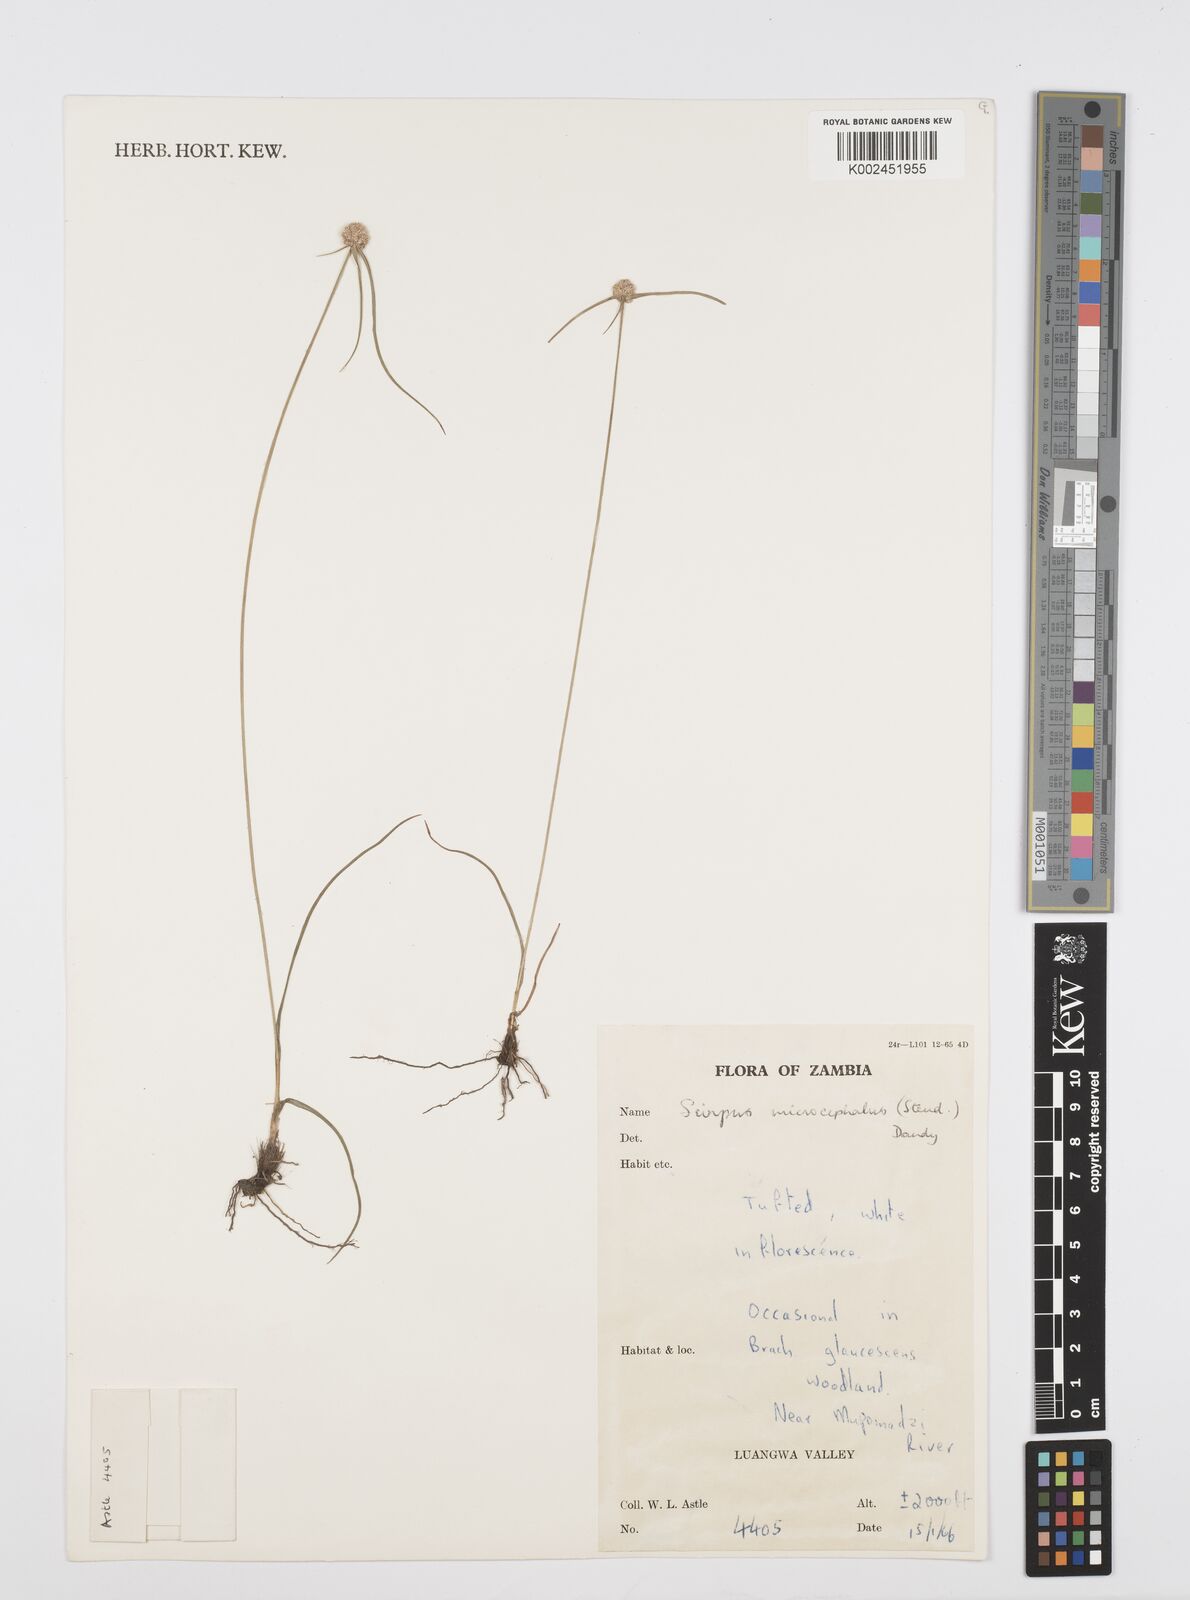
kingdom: Plantae
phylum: Tracheophyta
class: Liliopsida
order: Poales
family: Cyperaceae
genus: Cyperus
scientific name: Cyperus microcephalus
